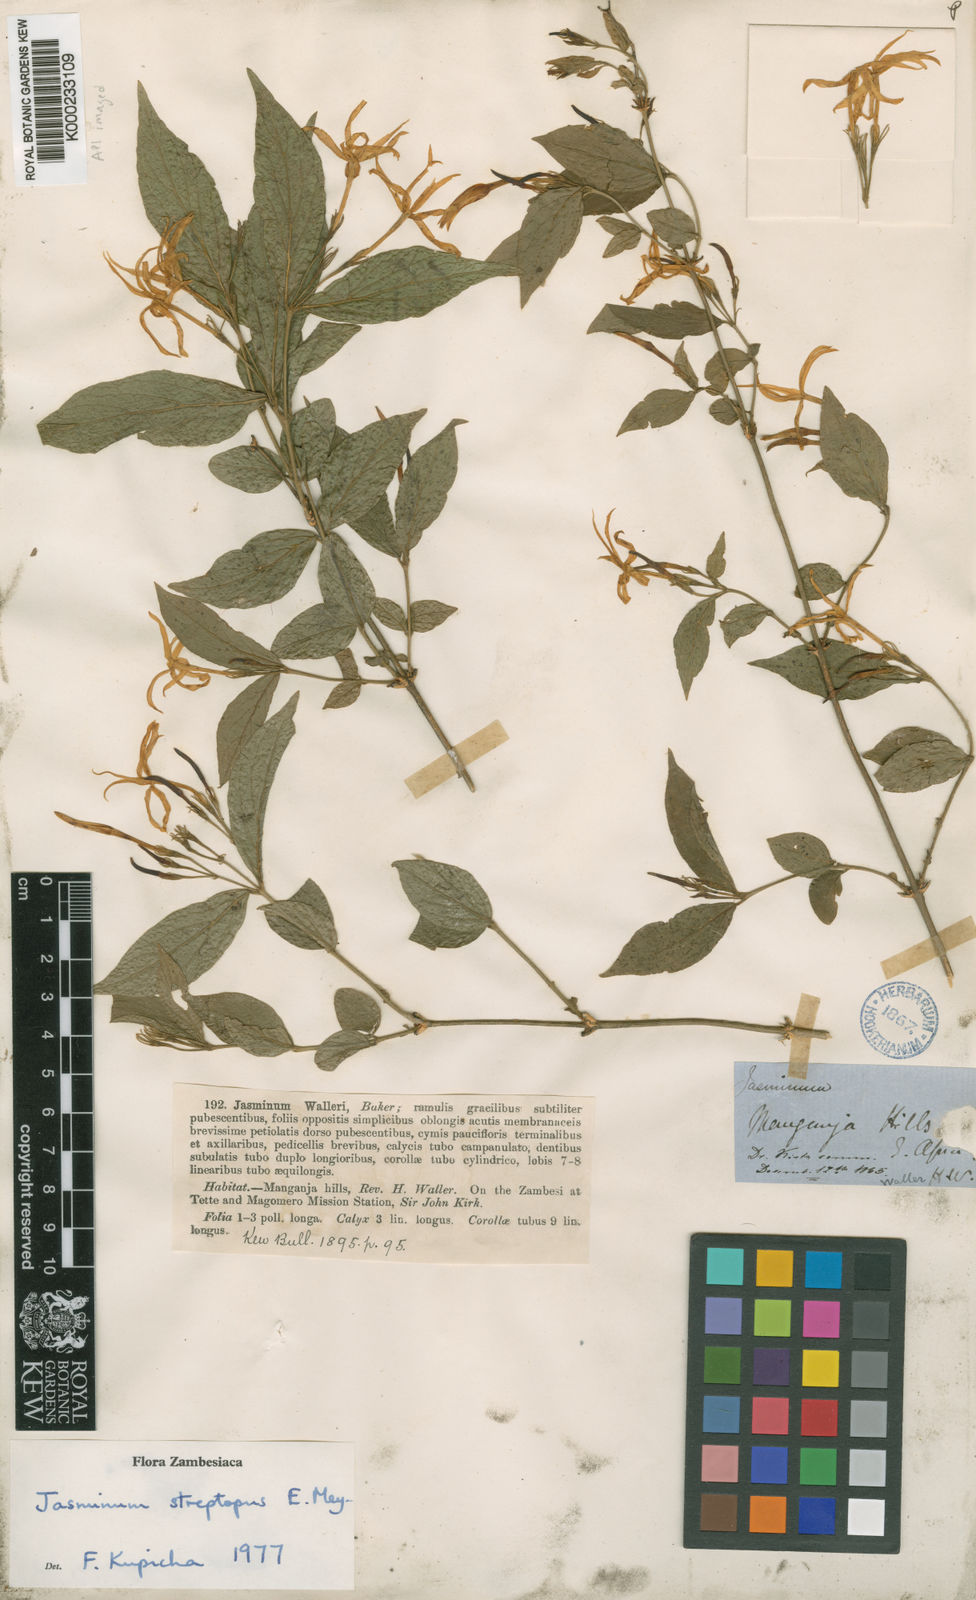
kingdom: Plantae
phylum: Tracheophyta
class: Magnoliopsida
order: Lamiales
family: Oleaceae
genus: Jasminum
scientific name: Jasminum streptopus
